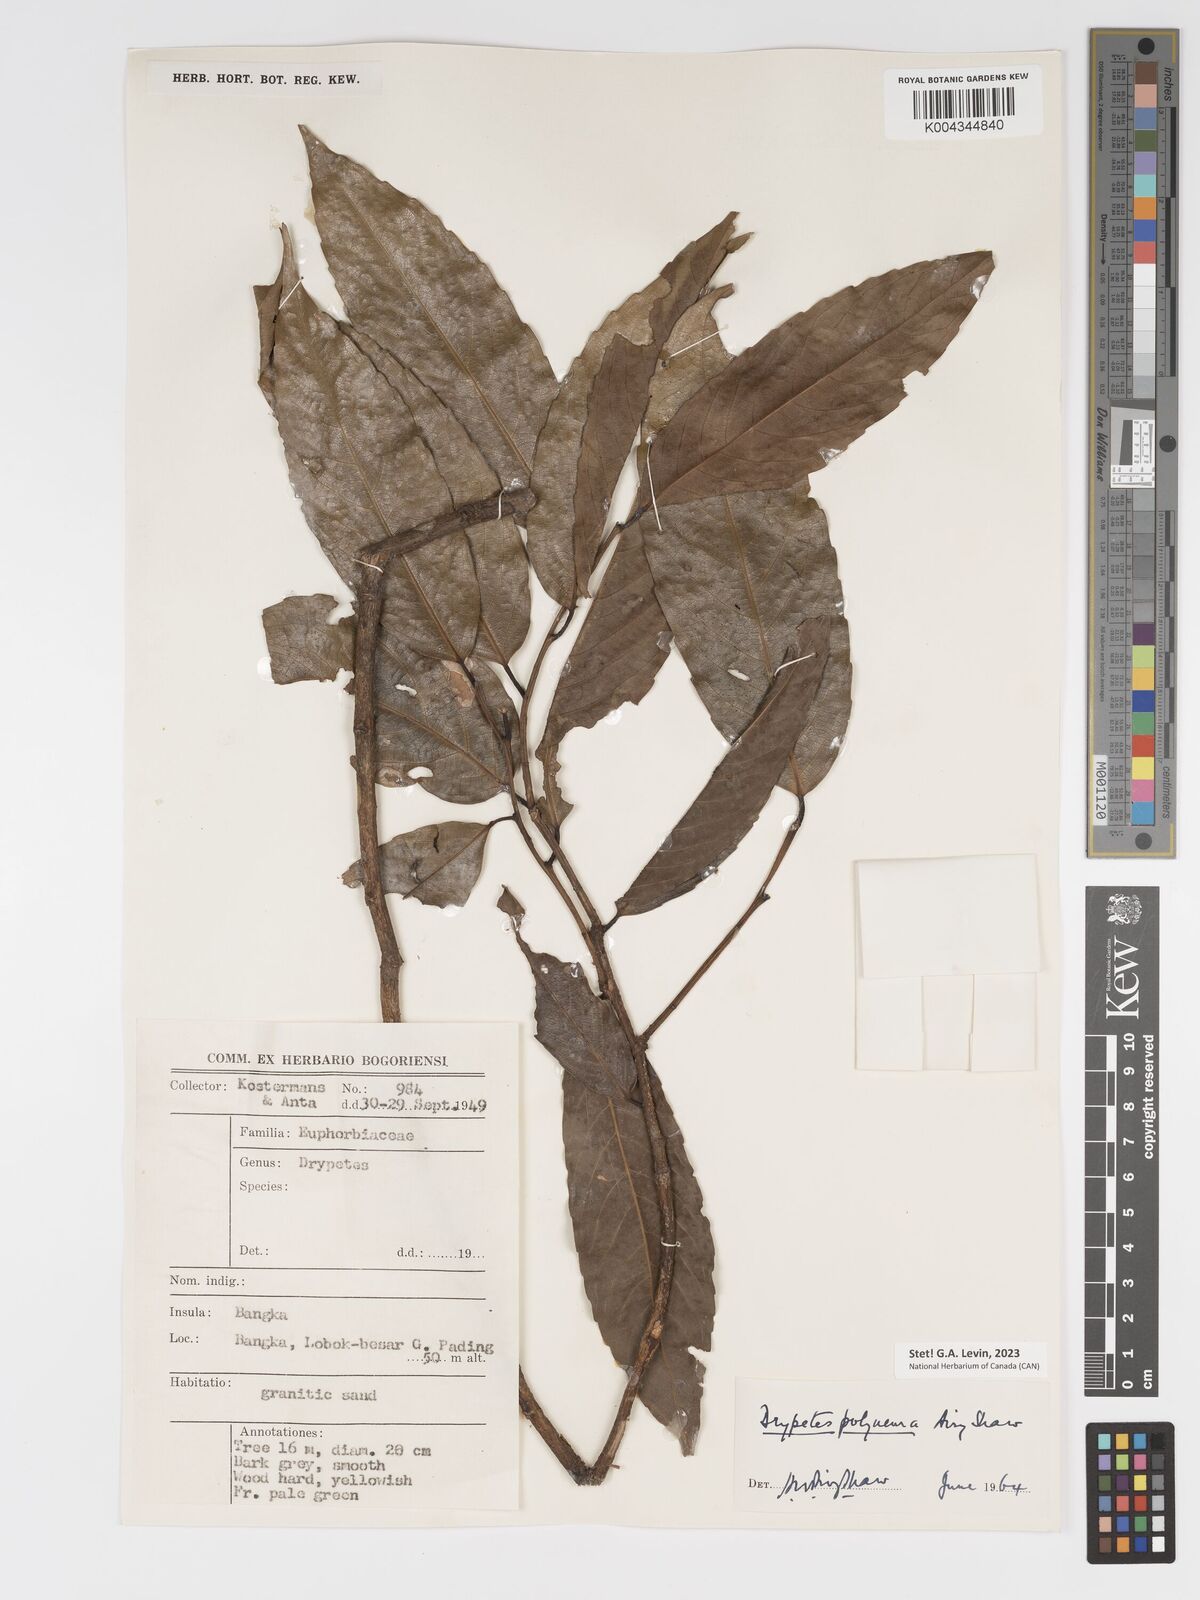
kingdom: Plantae
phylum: Tracheophyta
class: Magnoliopsida
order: Malpighiales
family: Putranjivaceae
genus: Drypetes
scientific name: Drypetes polyneura
